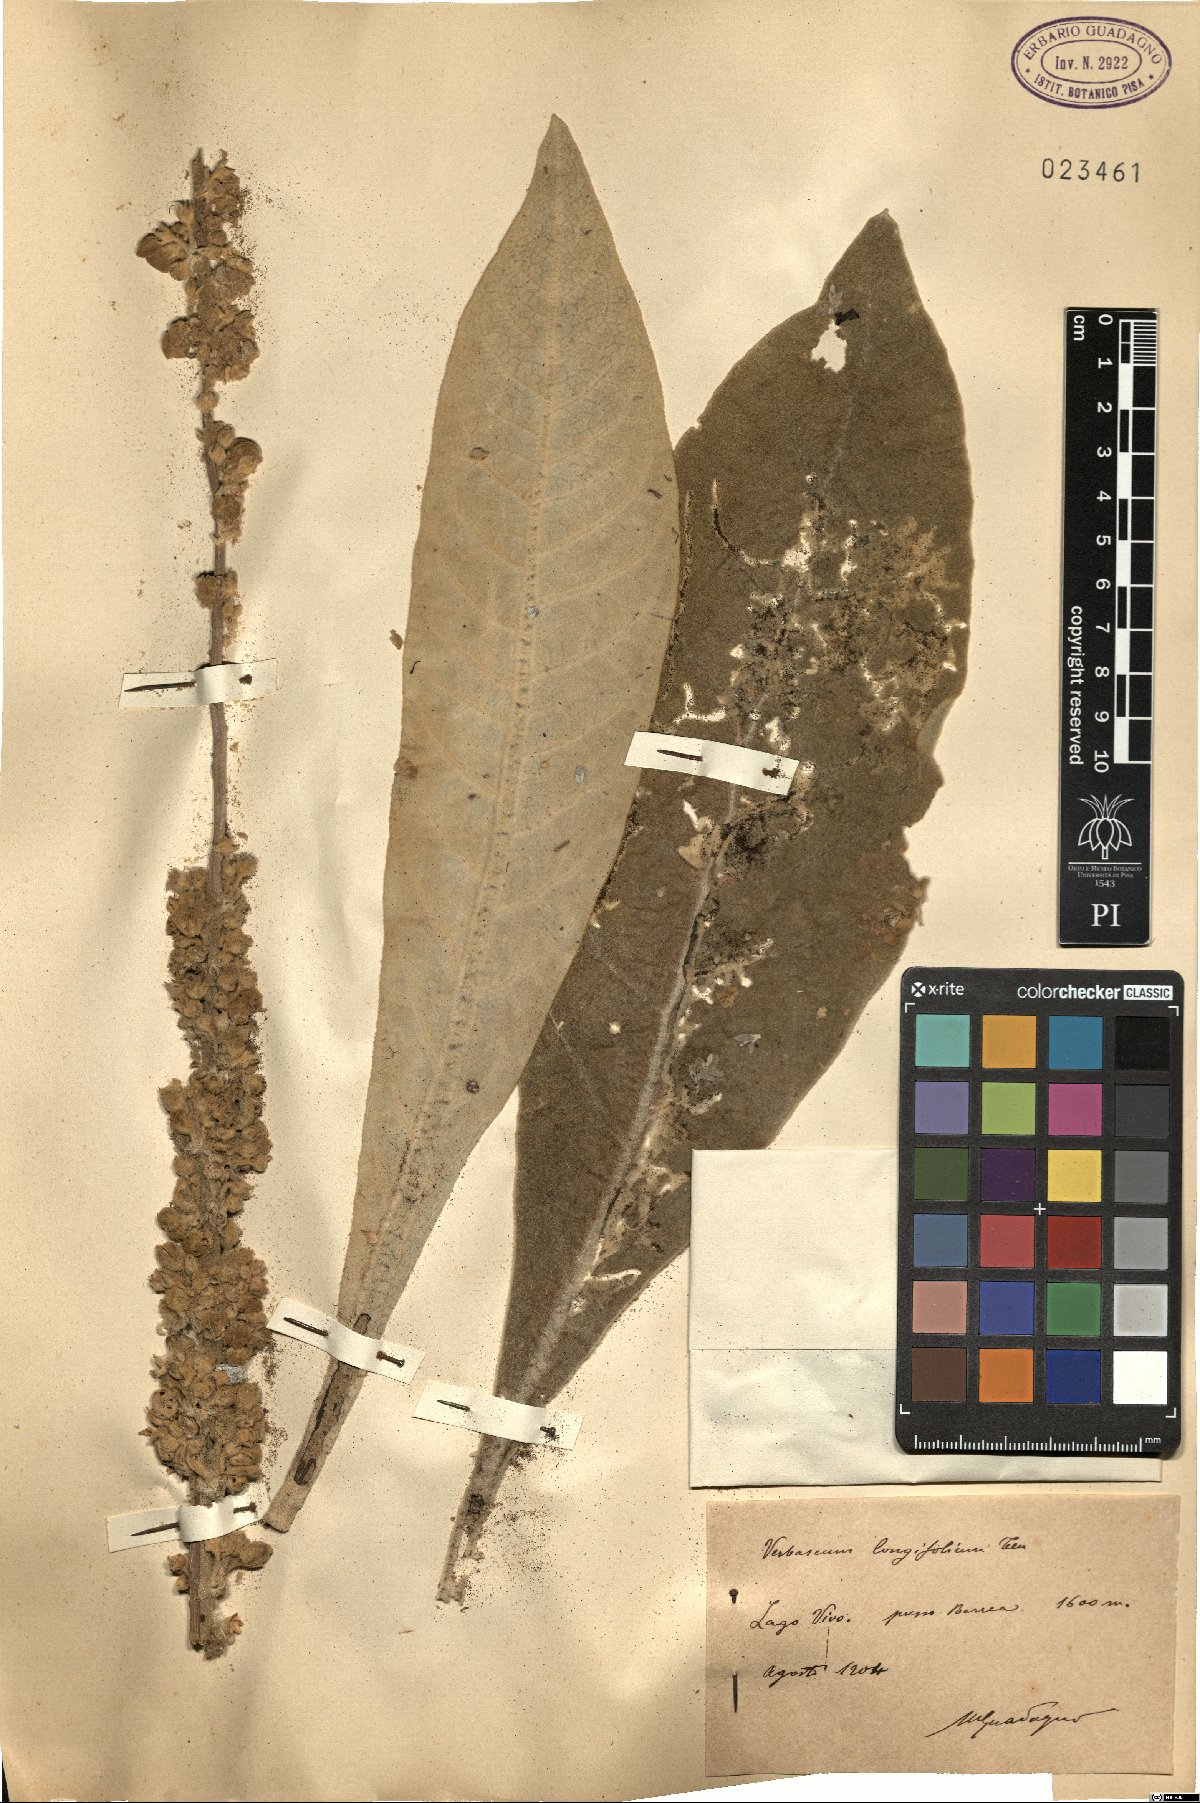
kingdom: Plantae
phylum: Tracheophyta
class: Magnoliopsida
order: Lamiales
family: Scrophulariaceae
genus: Verbascum
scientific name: Verbascum longifolium
